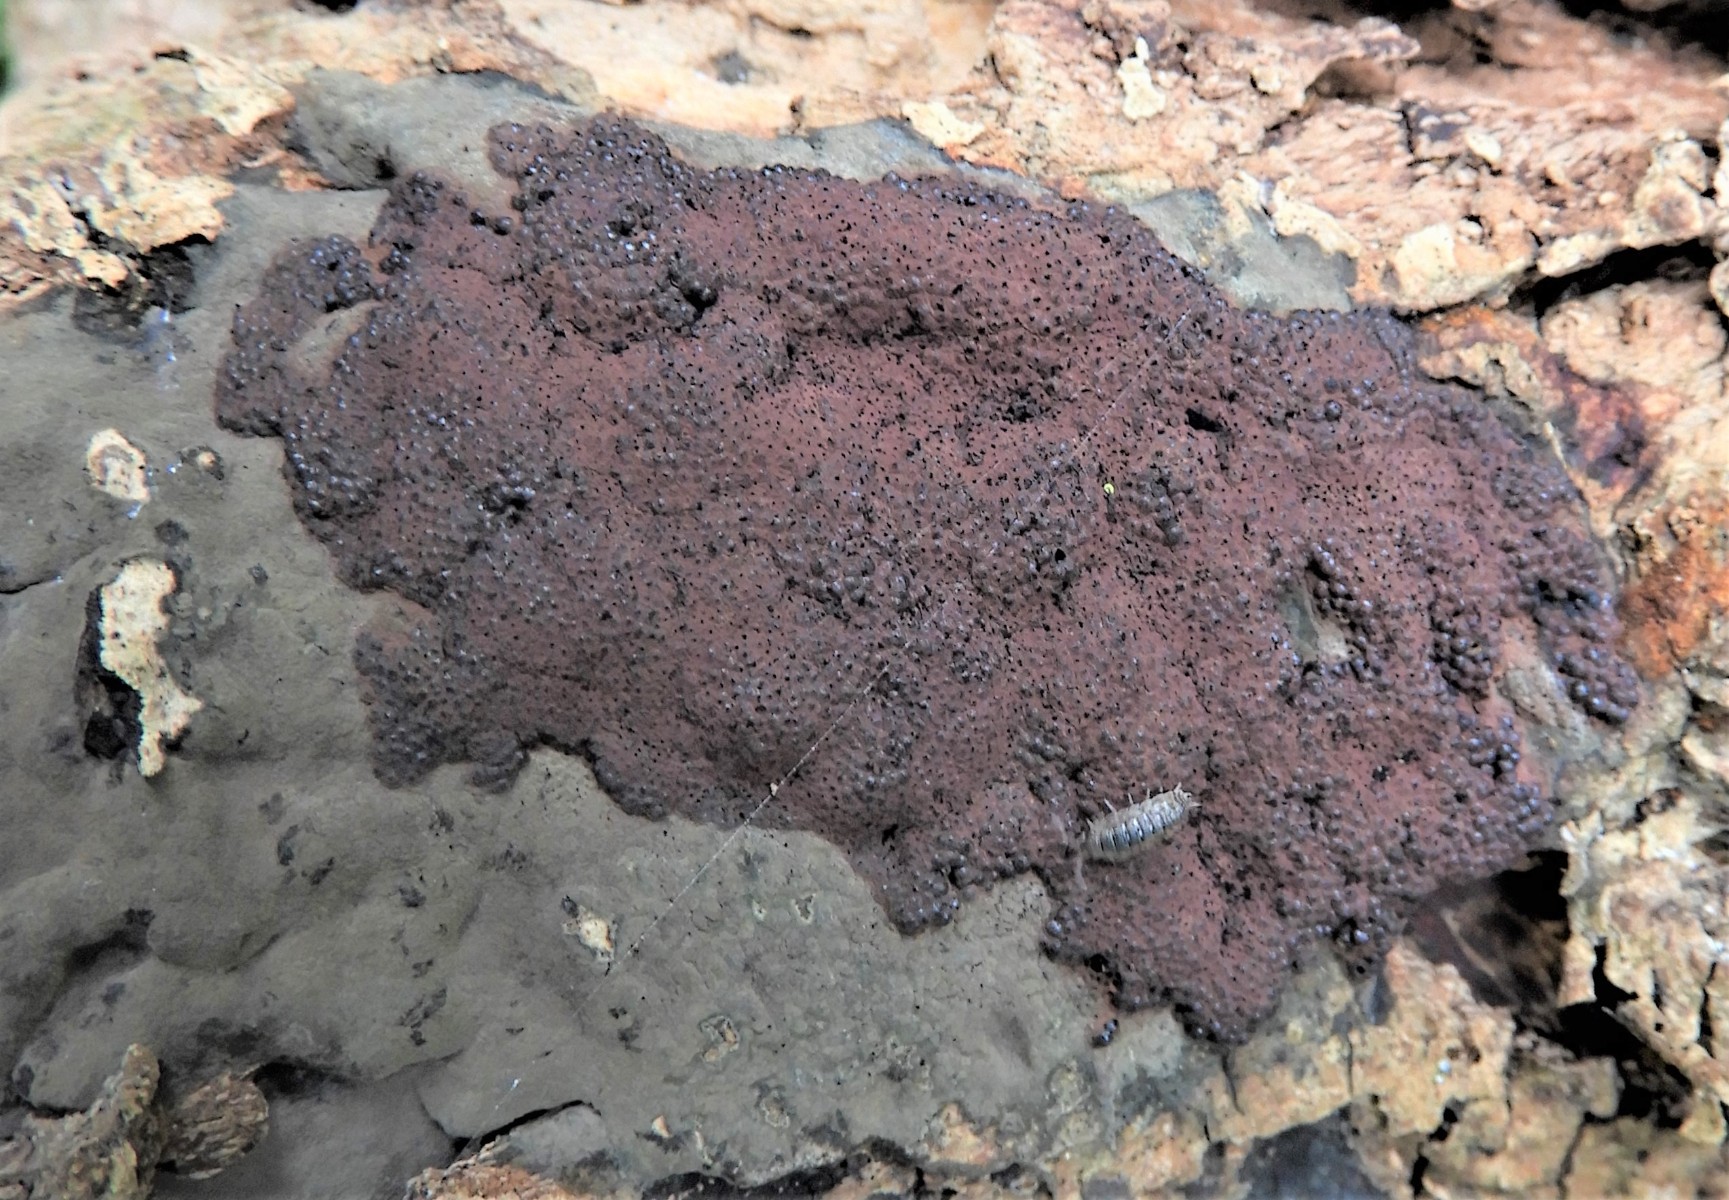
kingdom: Fungi
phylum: Ascomycota
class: Sordariomycetes
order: Xylariales
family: Hypoxylaceae
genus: Hypoxylon
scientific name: Hypoxylon macrocarpum
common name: skorpe-kulbær
